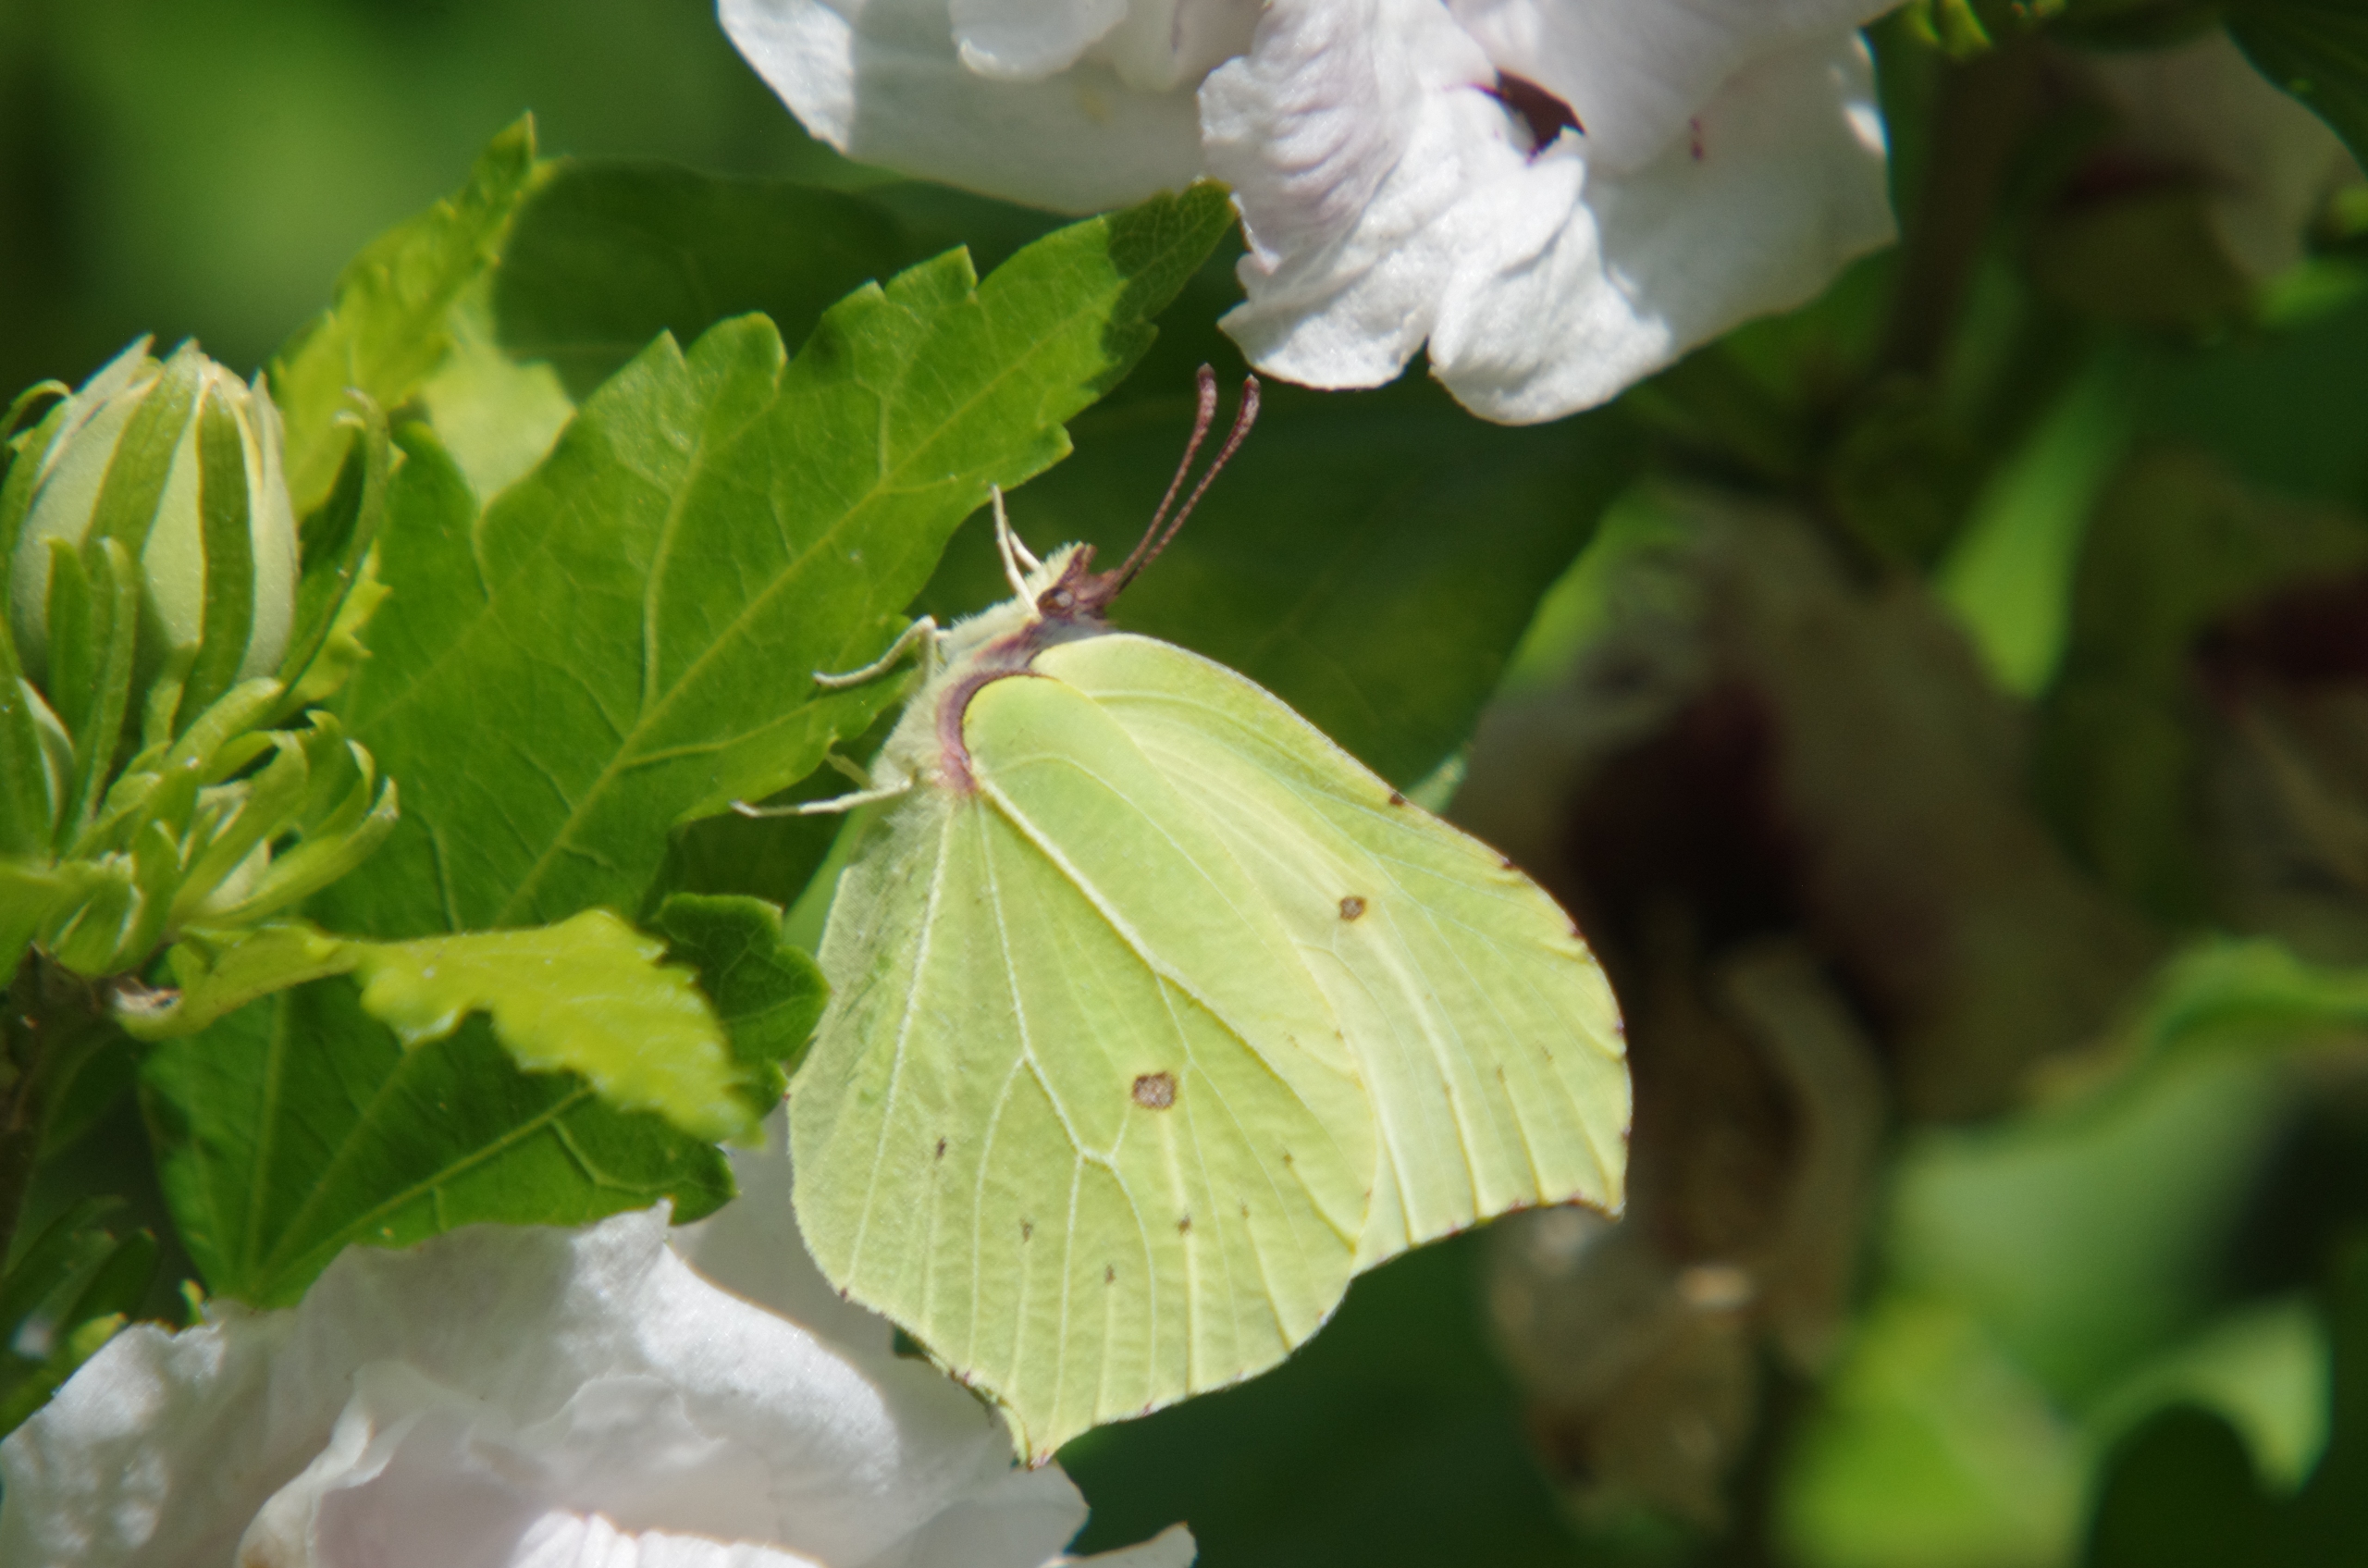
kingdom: Animalia
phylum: Arthropoda
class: Insecta
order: Lepidoptera
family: Pieridae
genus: Gonepteryx
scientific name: Gonepteryx rhamni
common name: Citronsommerfugl
